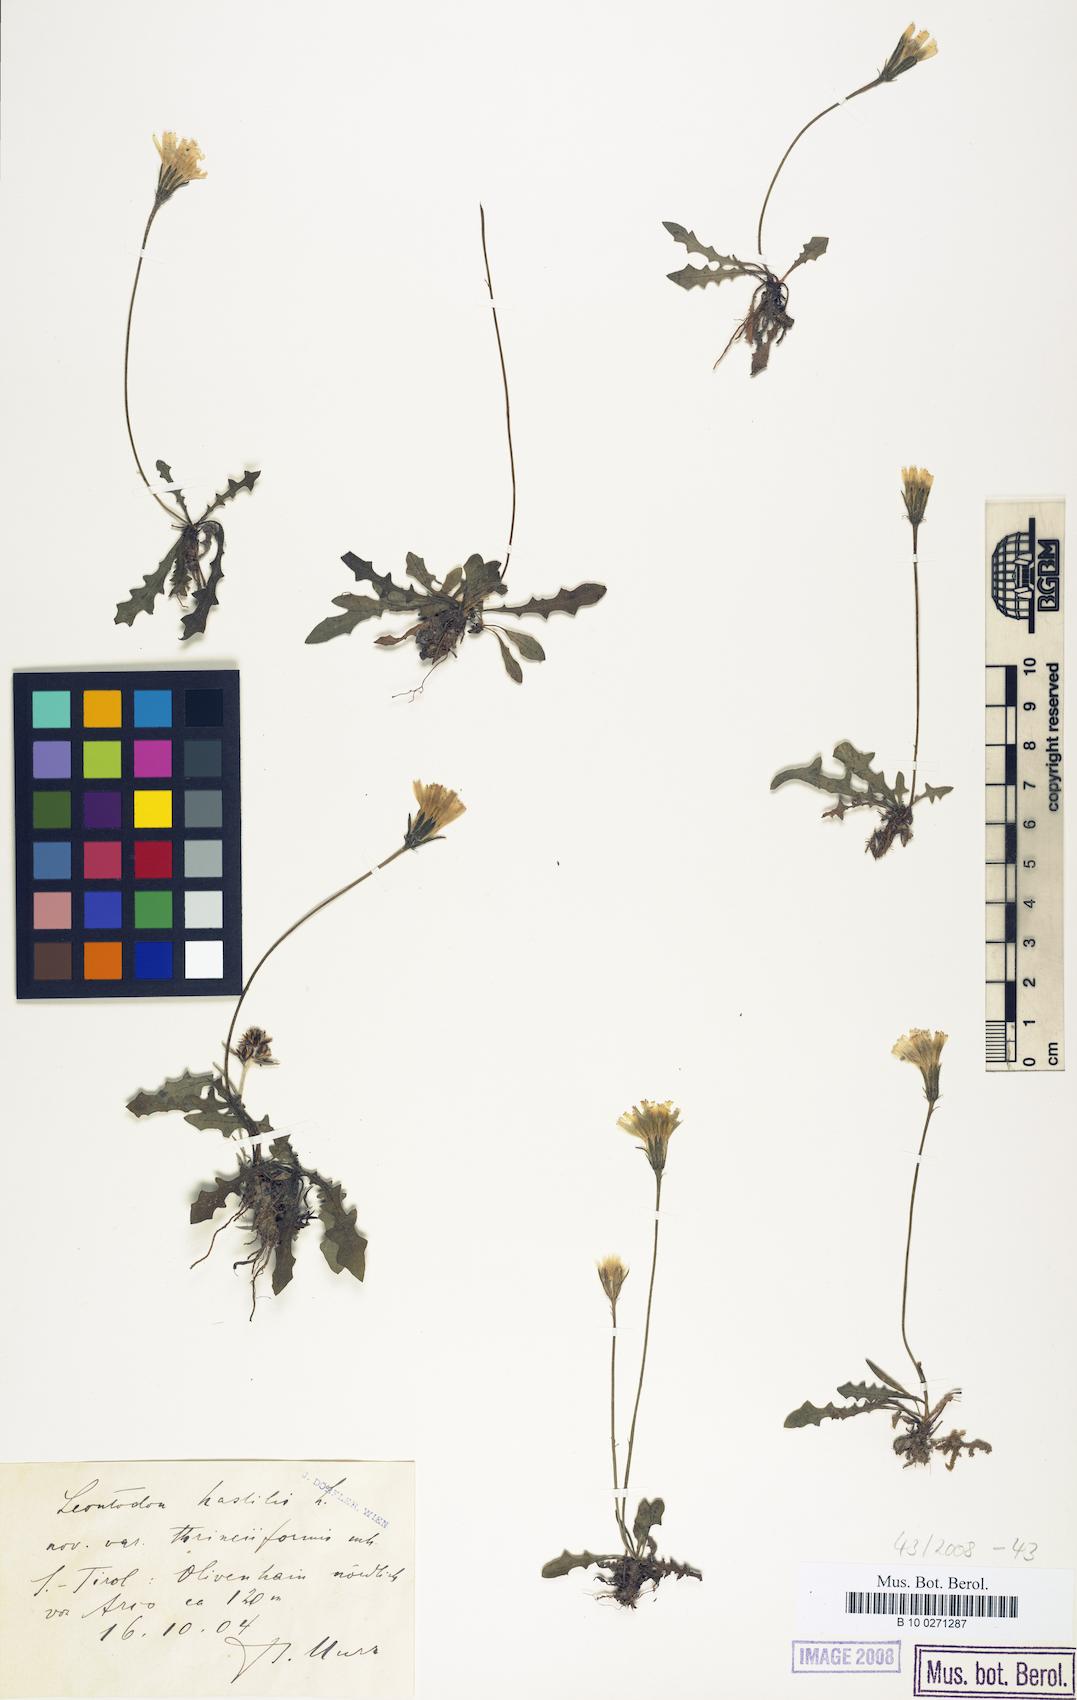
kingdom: Plantae
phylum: Tracheophyta
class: Magnoliopsida
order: Asterales
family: Asteraceae
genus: Leontodon
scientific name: Leontodon hispidus
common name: Rough hawkbit
